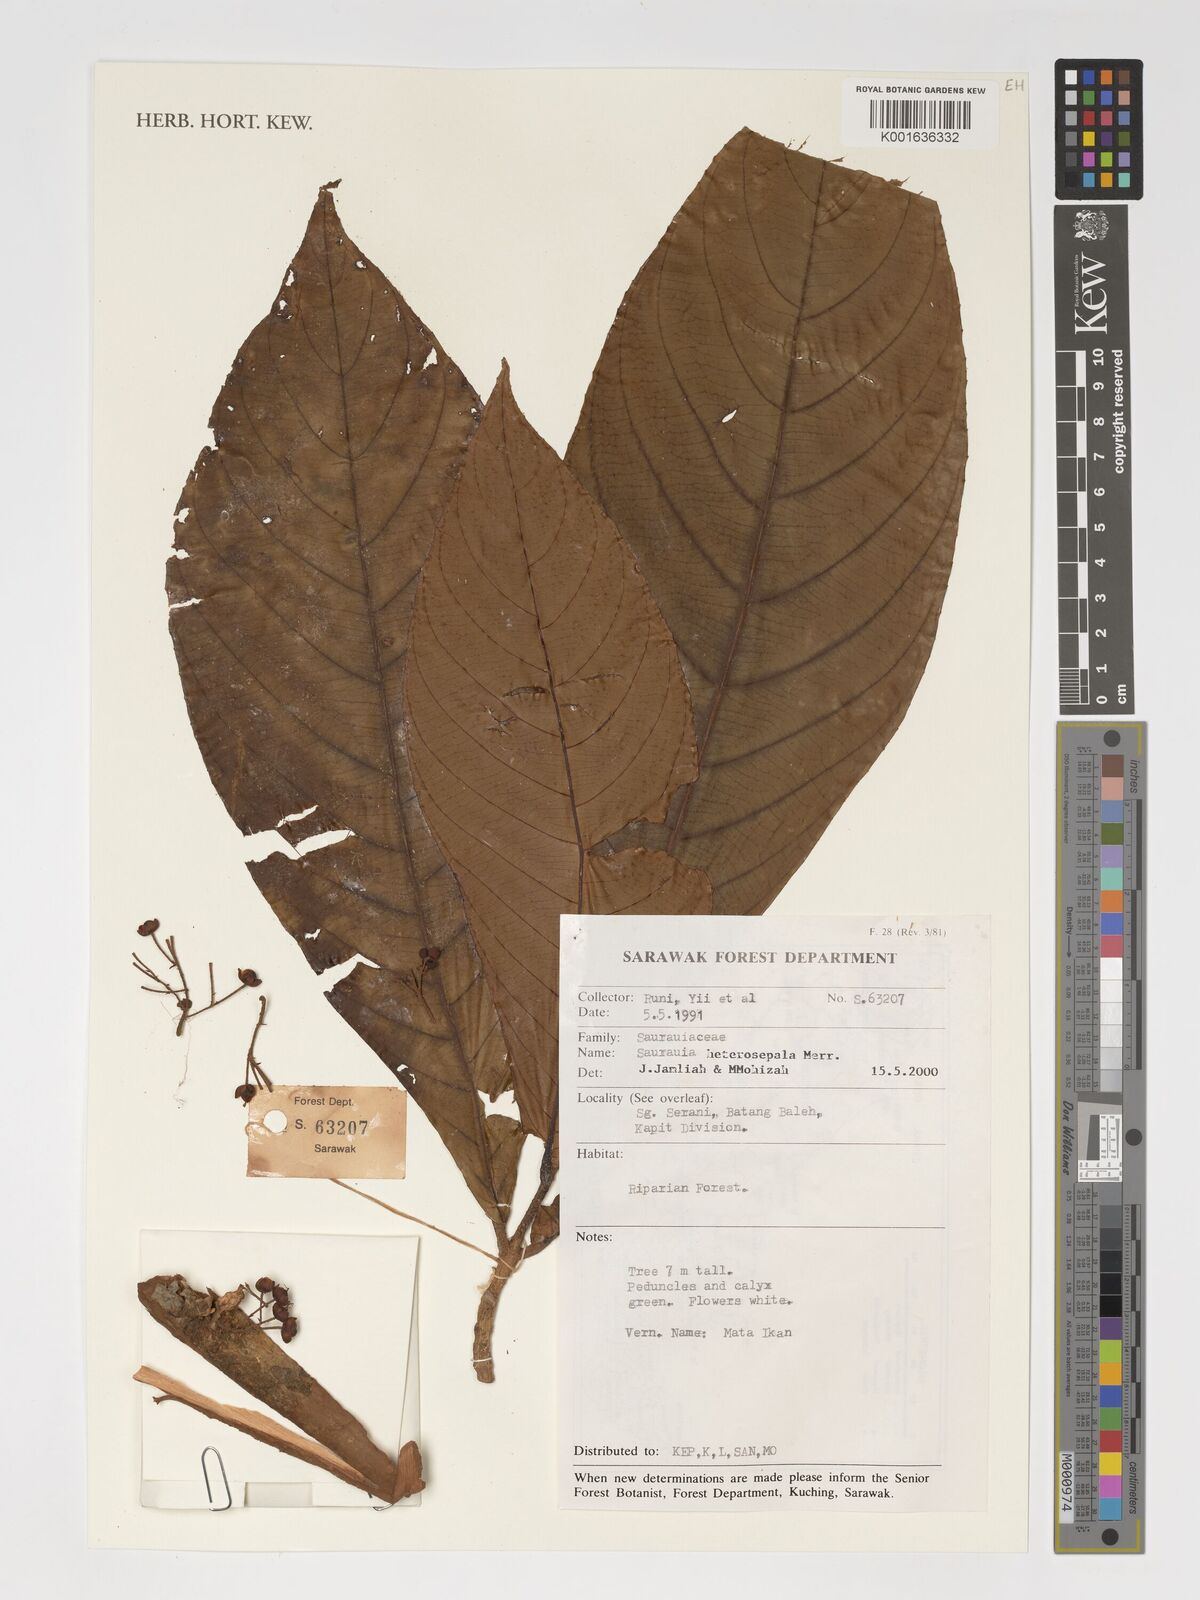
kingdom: Plantae
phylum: Tracheophyta
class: Magnoliopsida
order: Ericales
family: Actinidiaceae
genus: Saurauia
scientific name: Saurauia subcordata
